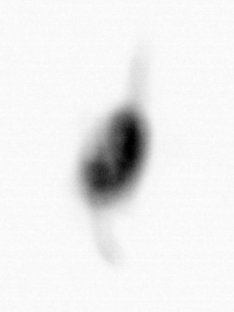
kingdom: Animalia
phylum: Arthropoda
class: Copepoda
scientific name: Copepoda
